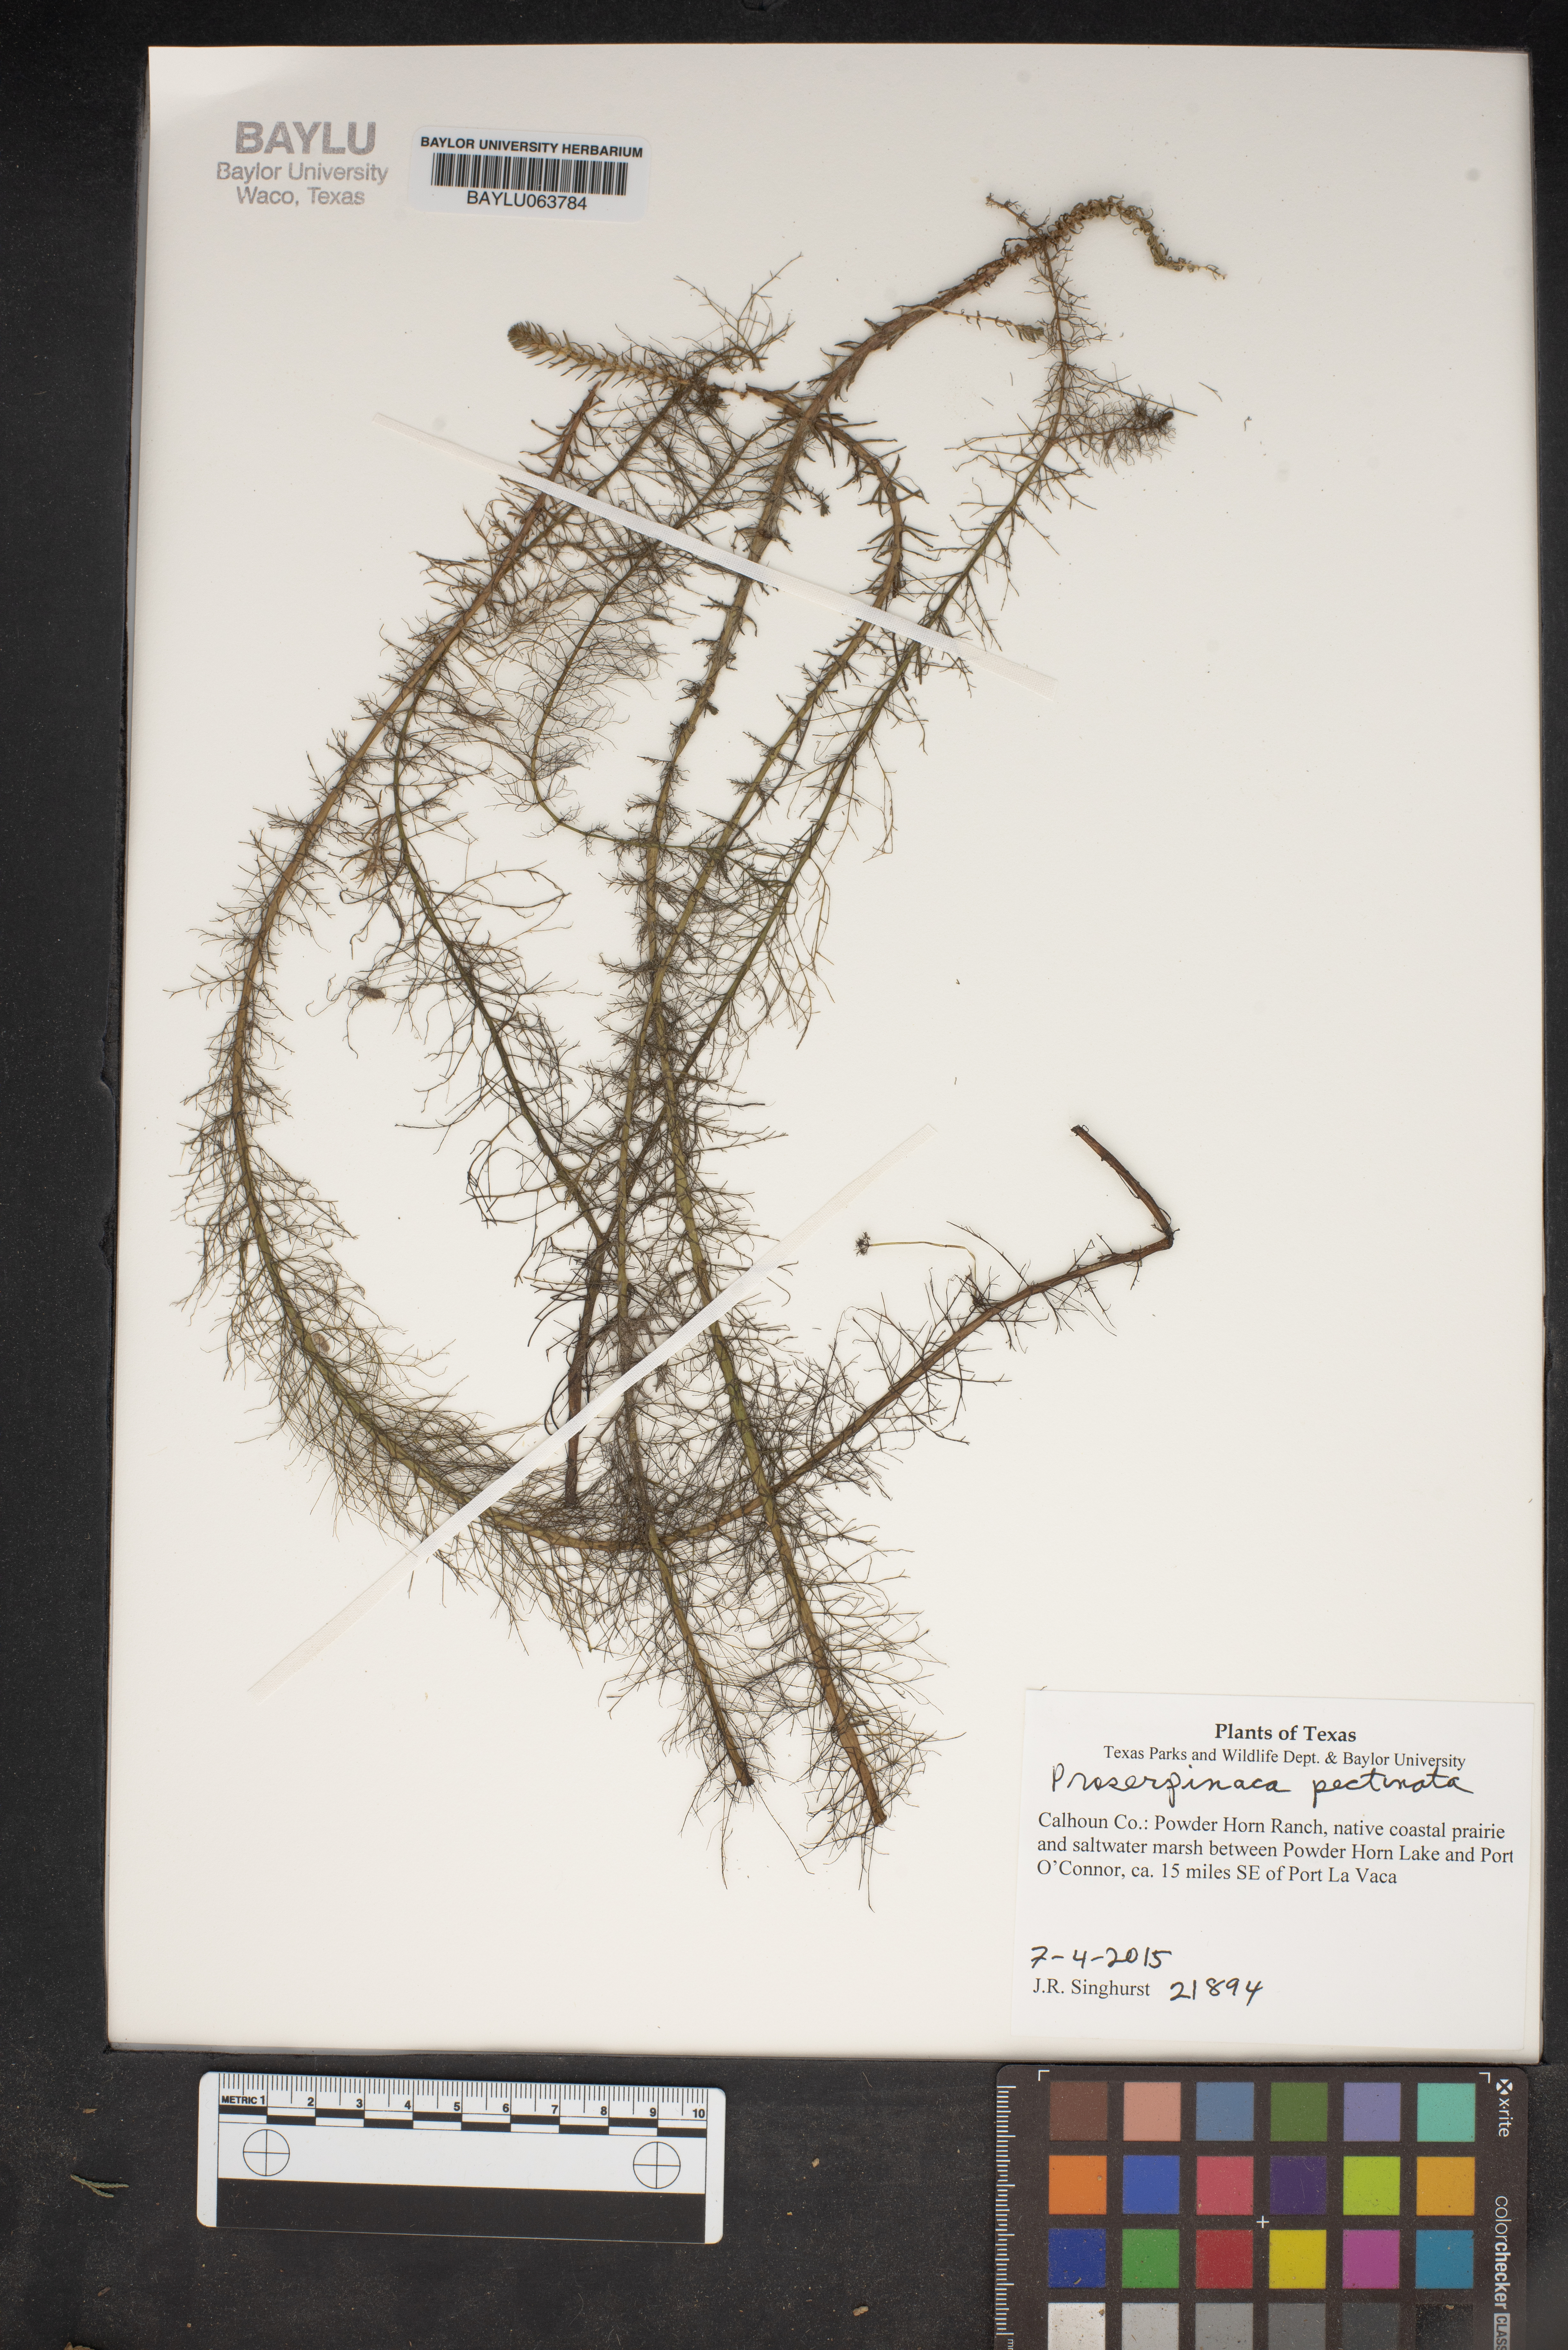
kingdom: Plantae
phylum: Tracheophyta
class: Magnoliopsida
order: Saxifragales
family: Haloragaceae
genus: Proserpinaca
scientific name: Proserpinaca pectinata
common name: Comb-leaved mermaidweed
